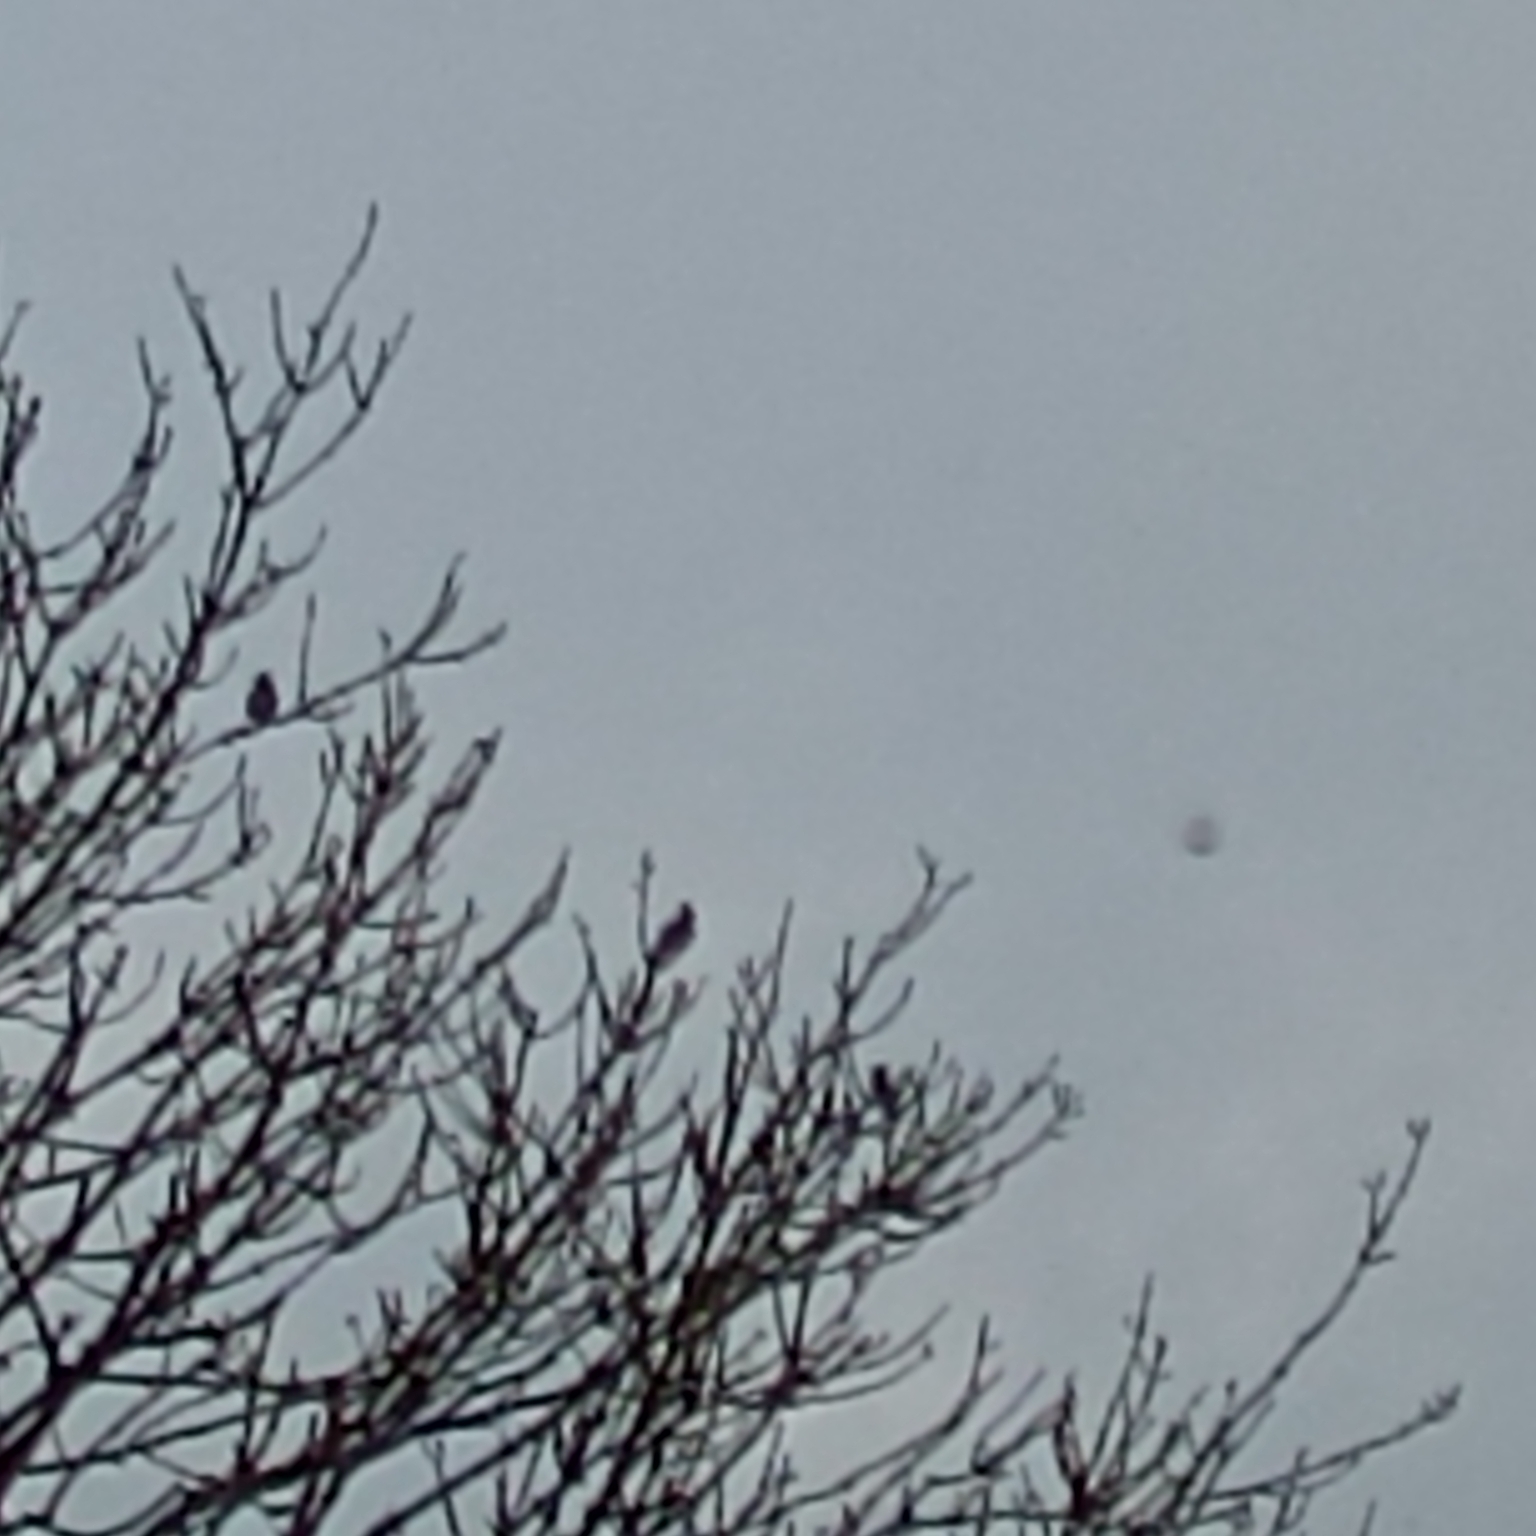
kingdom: Animalia
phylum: Chordata
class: Aves
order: Passeriformes
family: Bombycillidae
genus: Bombycilla
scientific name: Bombycilla garrulus
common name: Silkehale
